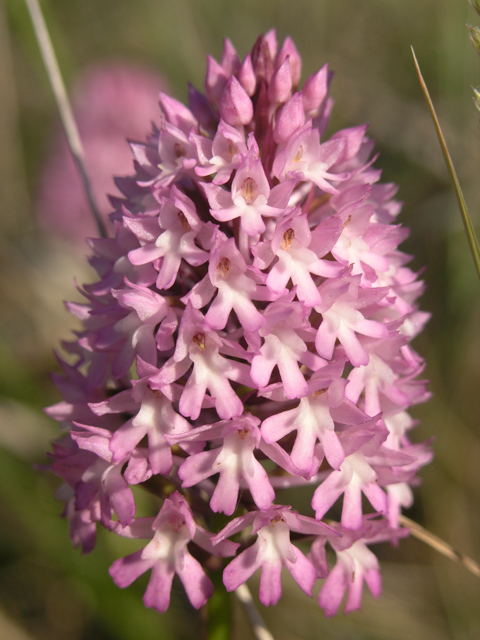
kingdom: Plantae
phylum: Tracheophyta
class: Liliopsida
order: Asparagales
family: Orchidaceae
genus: Anacamptis
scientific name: Anacamptis pyramidalis
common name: Pyramidal orchid
